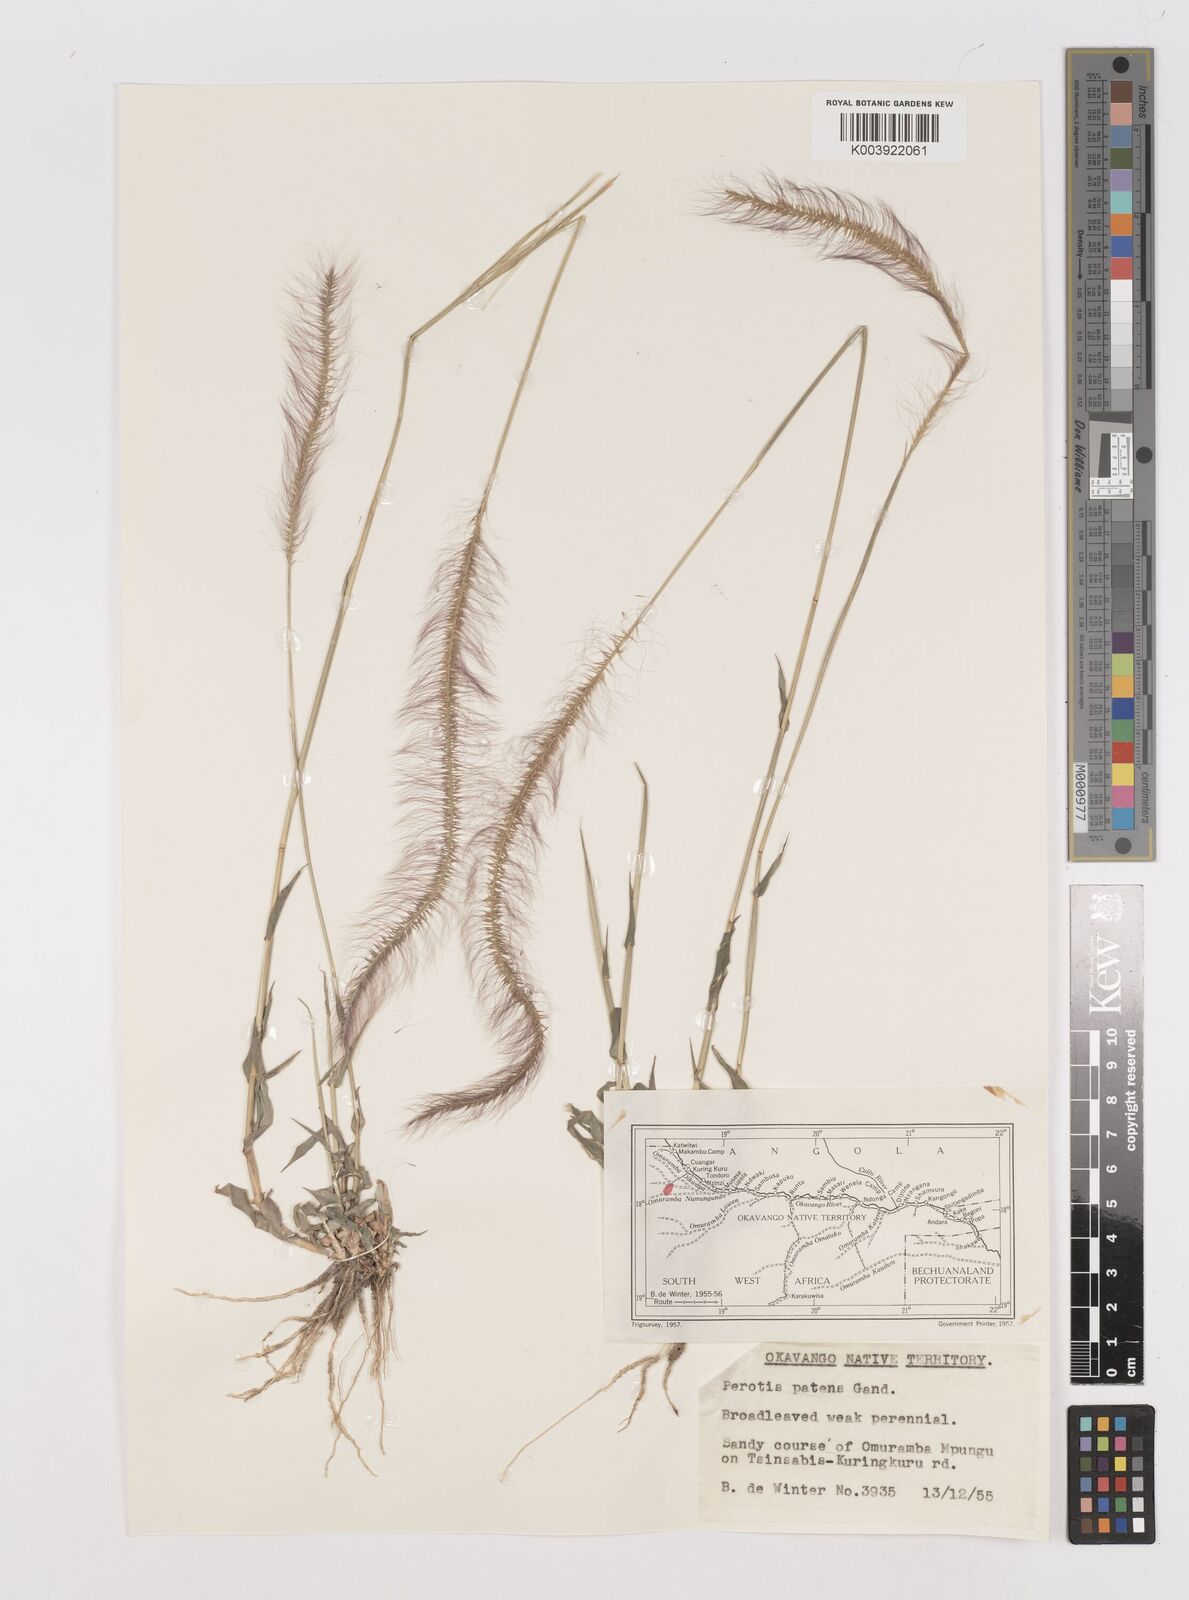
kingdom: Plantae
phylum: Tracheophyta
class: Liliopsida
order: Poales
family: Poaceae
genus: Perotis
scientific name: Perotis patens
